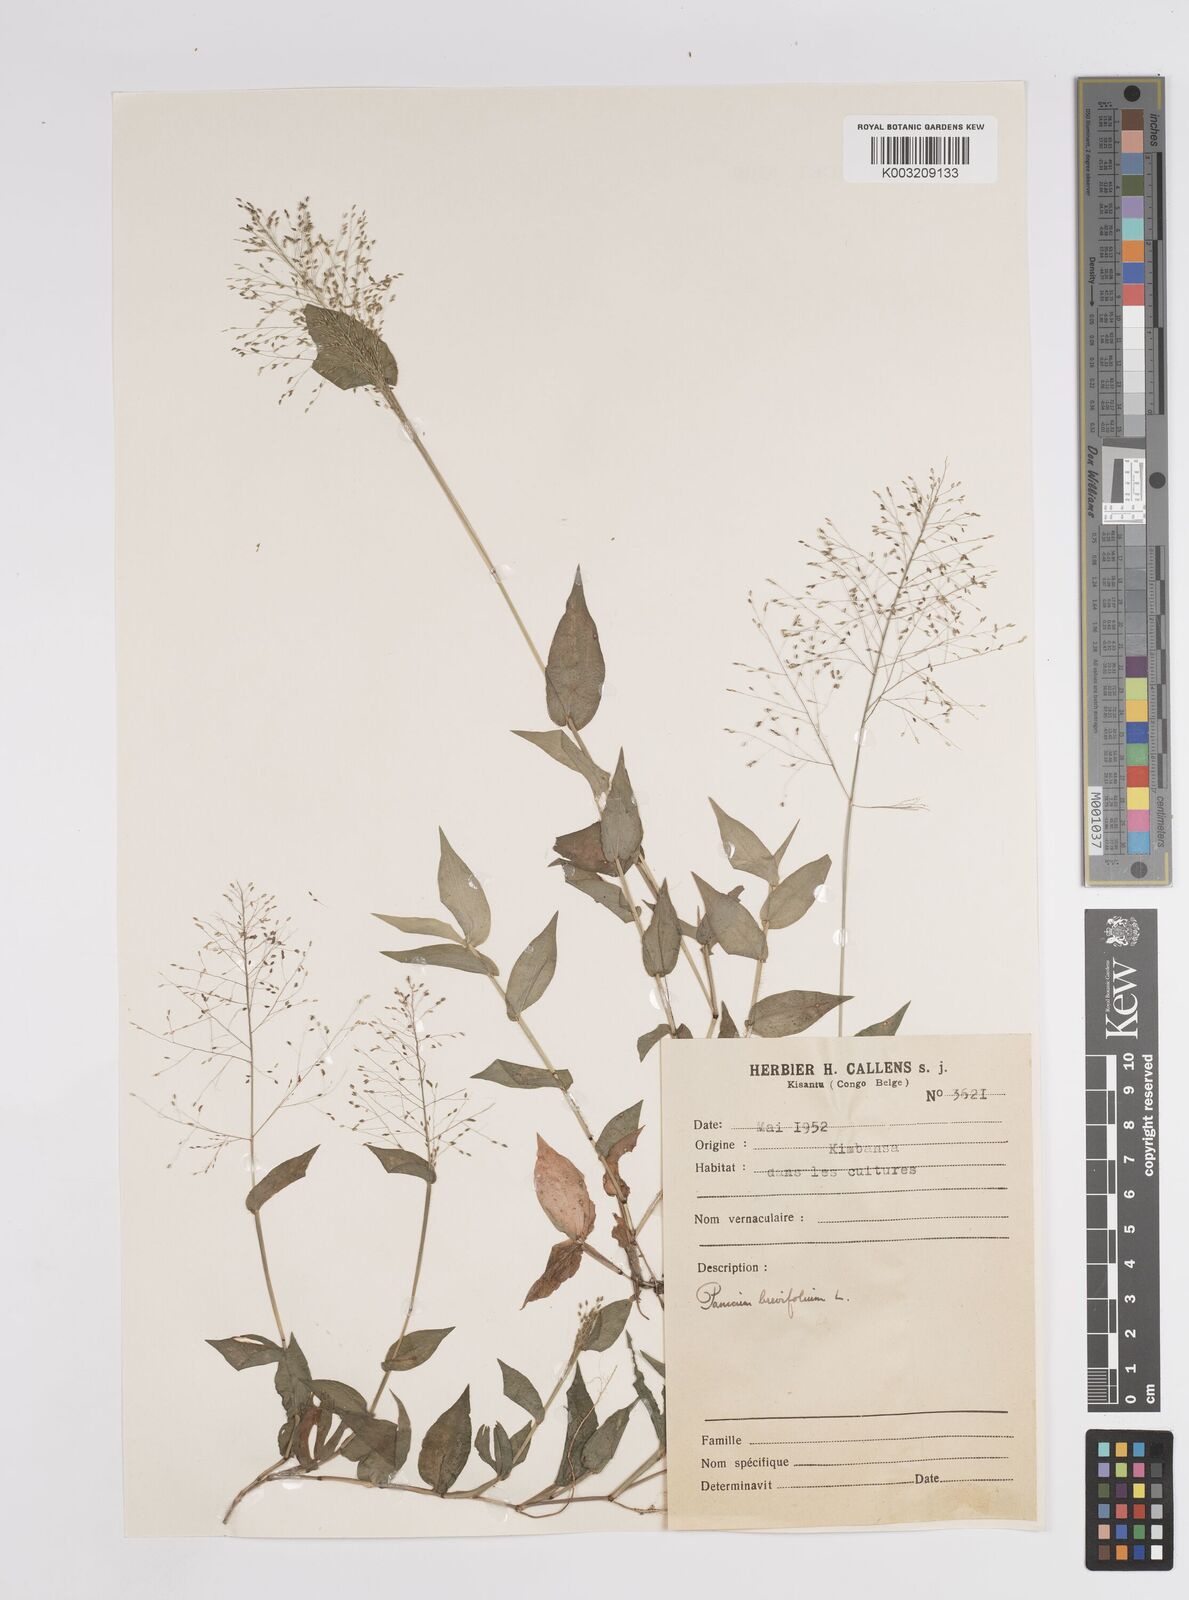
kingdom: Plantae
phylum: Tracheophyta
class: Liliopsida
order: Poales
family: Poaceae
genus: Panicum
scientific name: Panicum brevifolium
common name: Shortleaf panic grass
